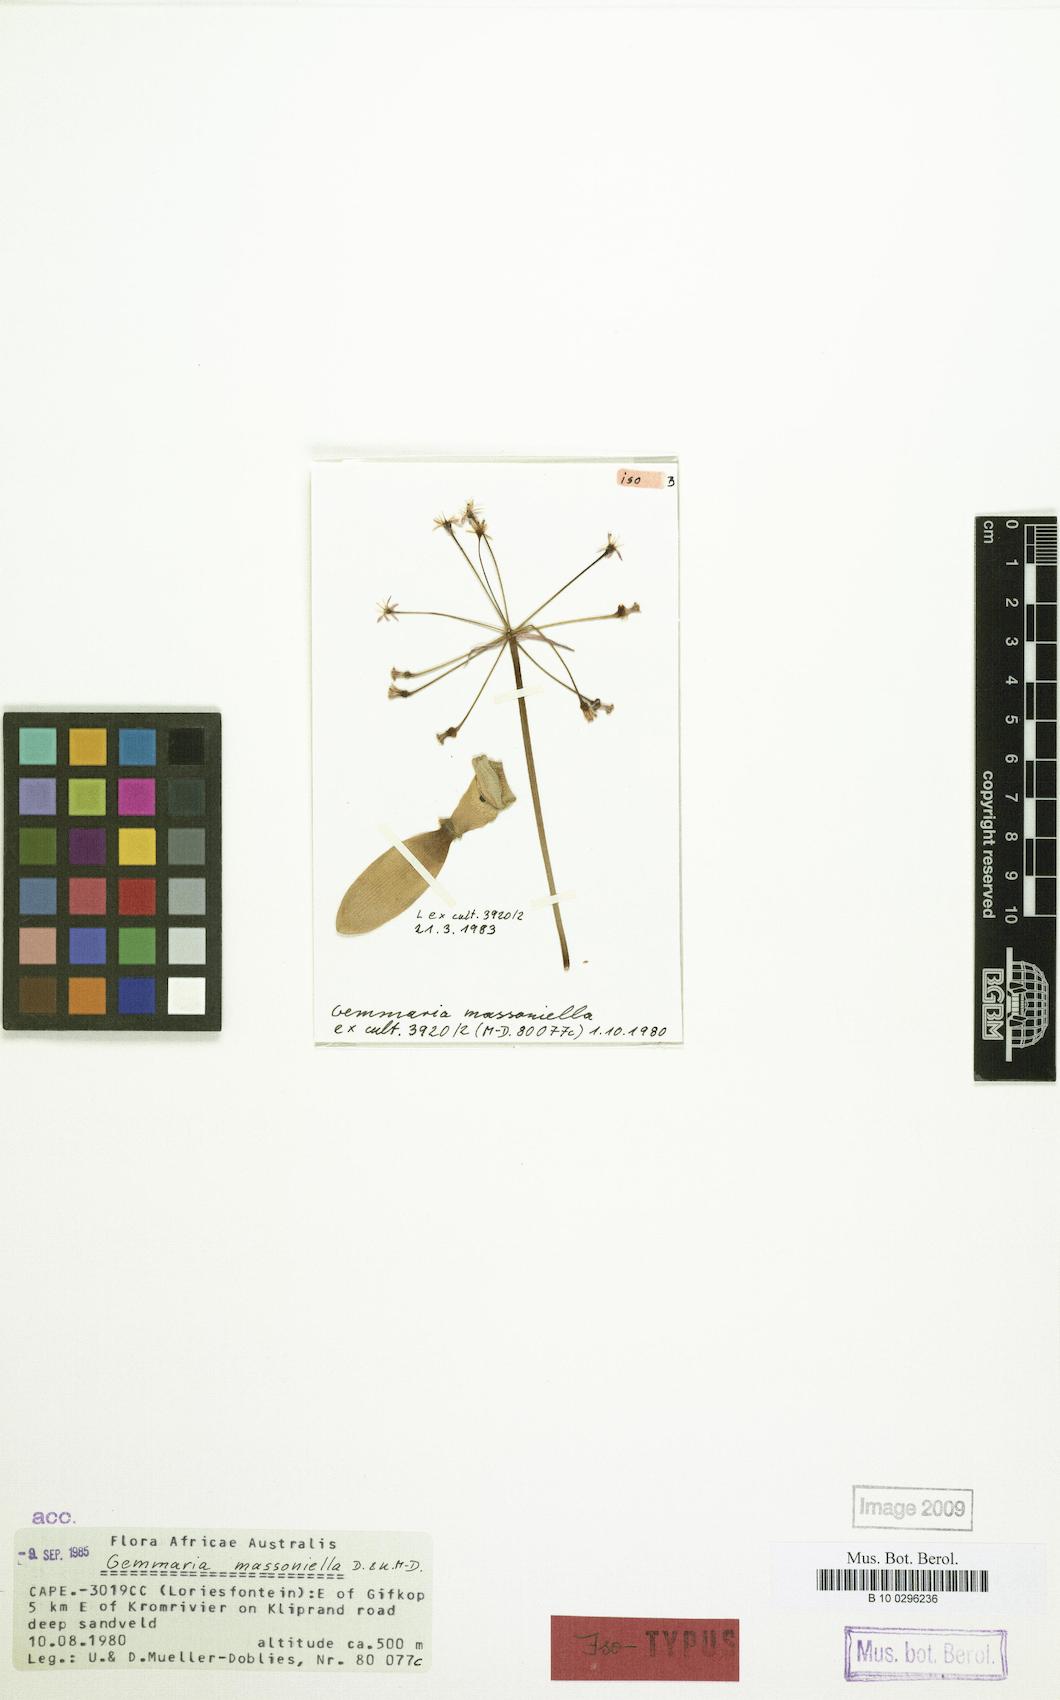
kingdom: Plantae
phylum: Tracheophyta
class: Liliopsida
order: Asparagales
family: Amaryllidaceae
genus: Strumaria
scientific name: Strumaria massoniella
